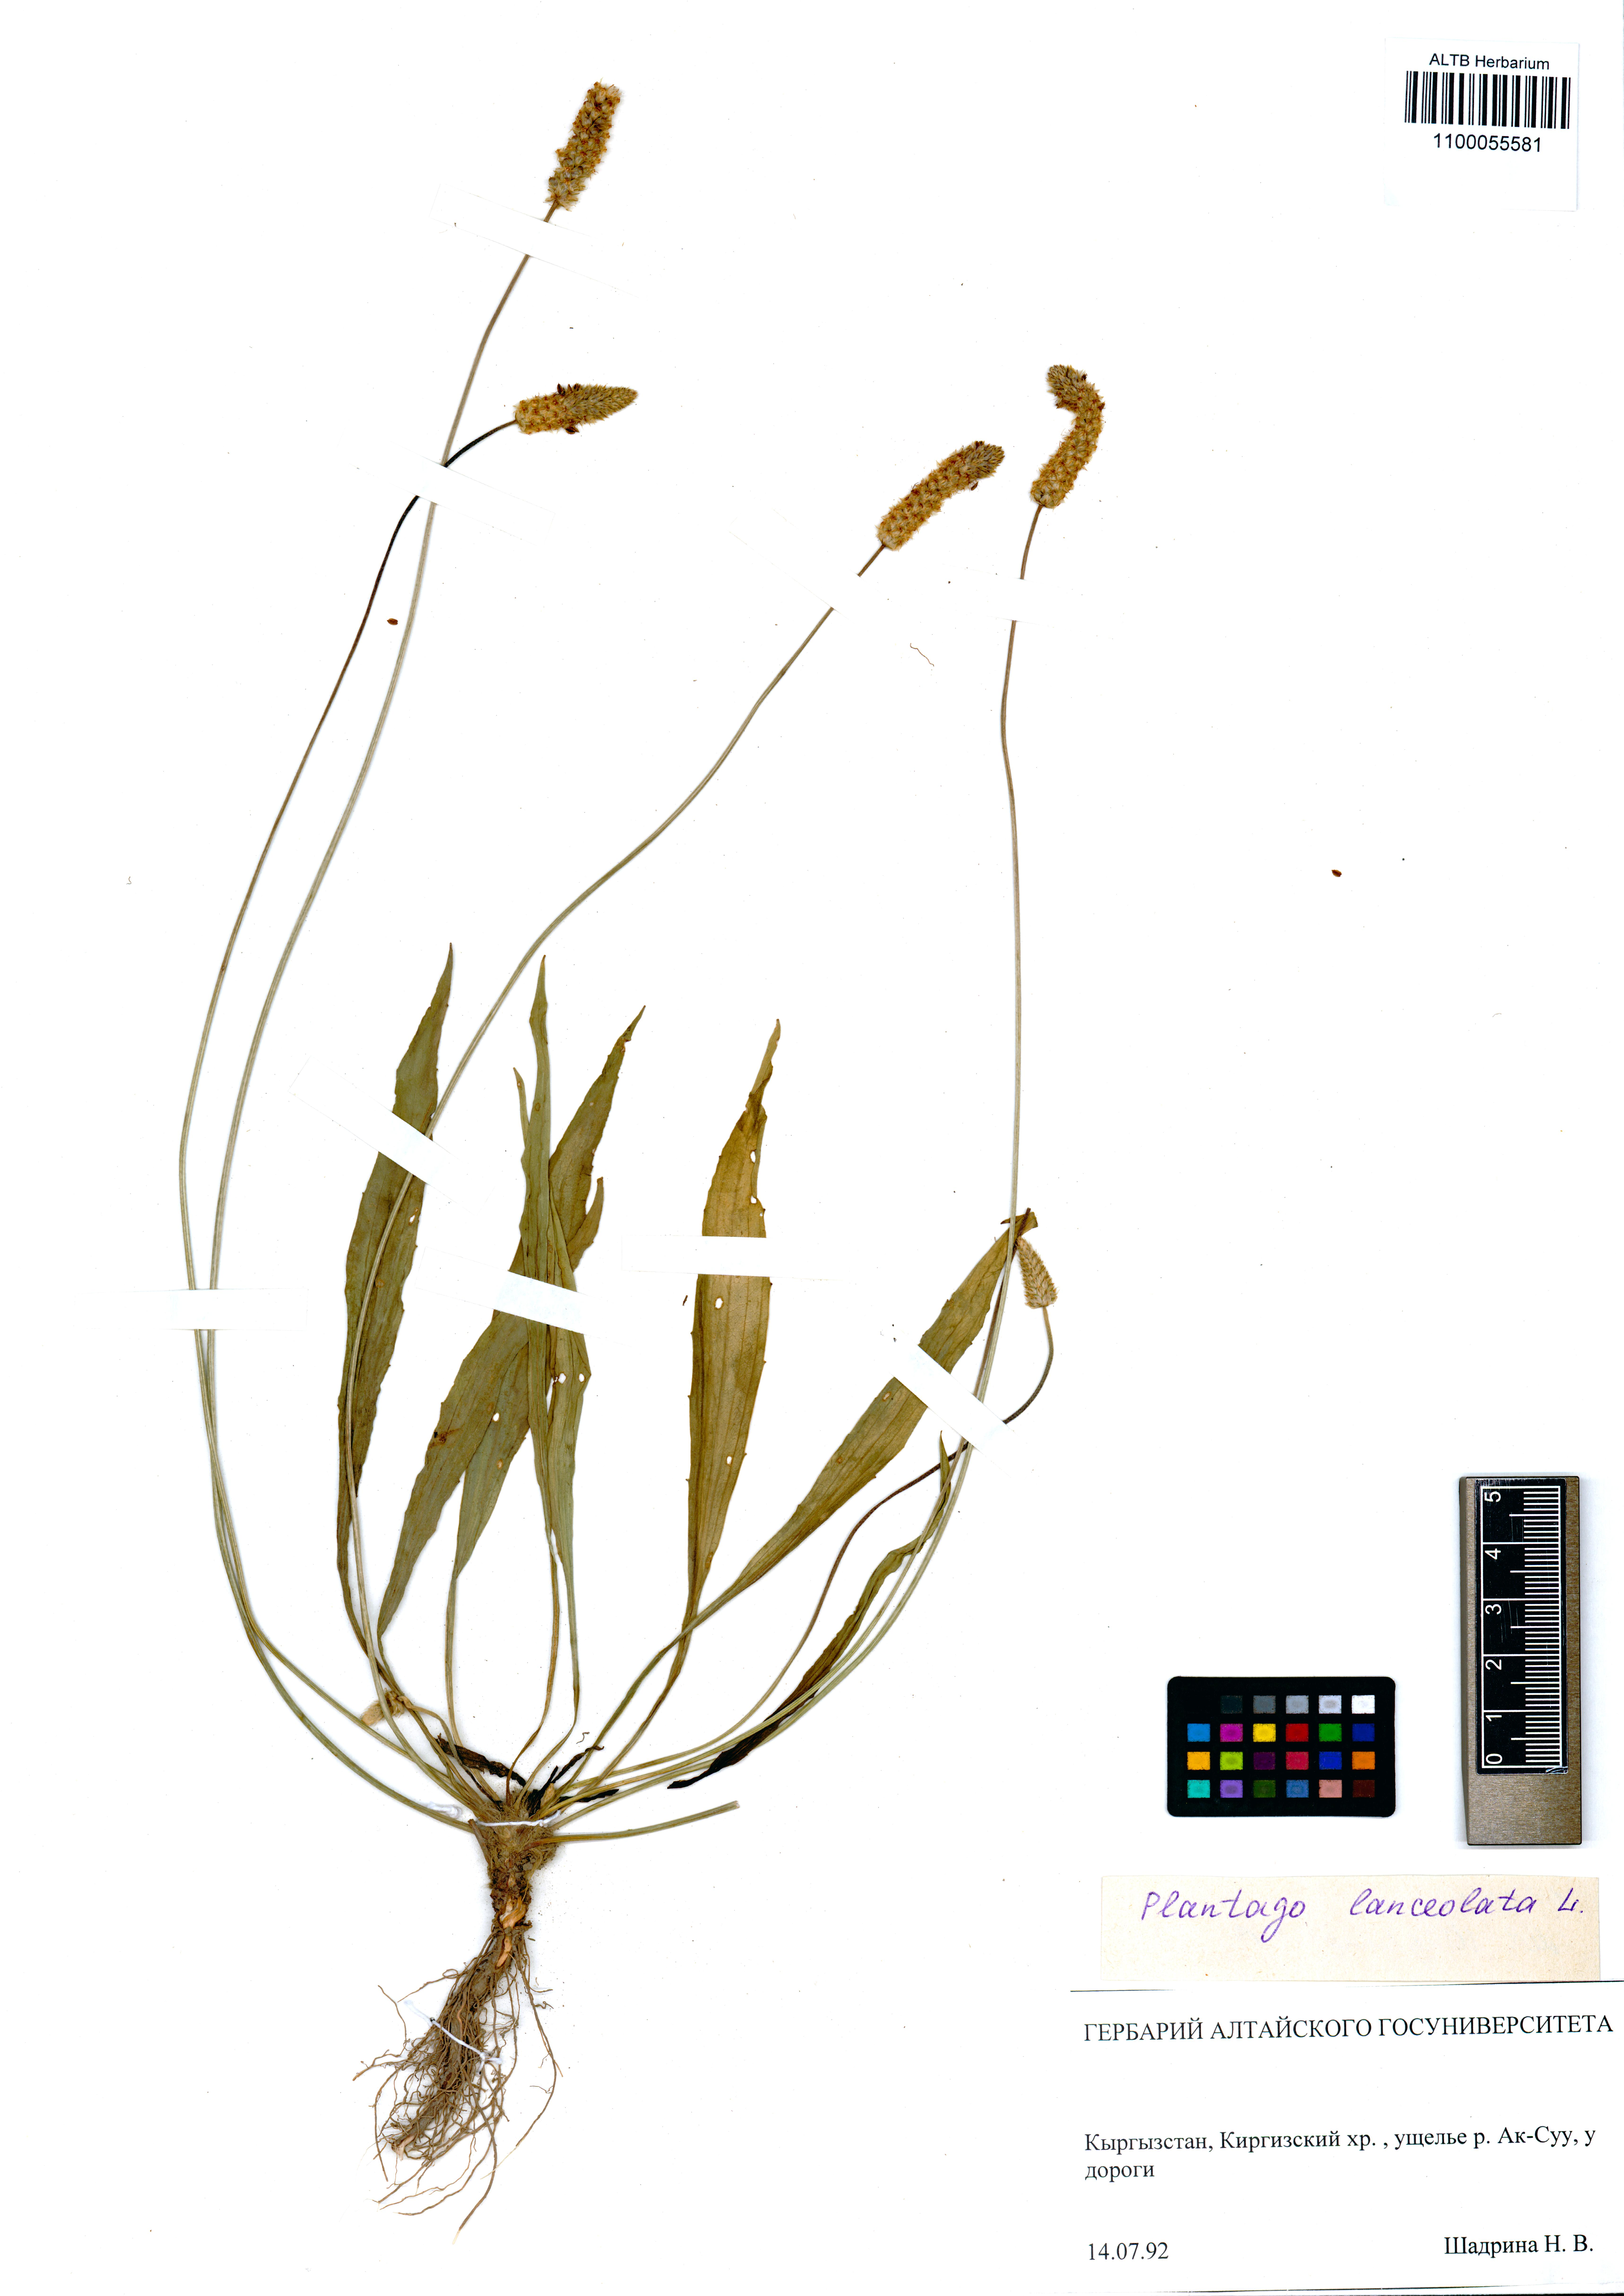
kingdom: Plantae
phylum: Tracheophyta
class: Magnoliopsida
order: Lamiales
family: Plantaginaceae
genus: Plantago
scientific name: Plantago lanceolata
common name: Ribwort plantain
